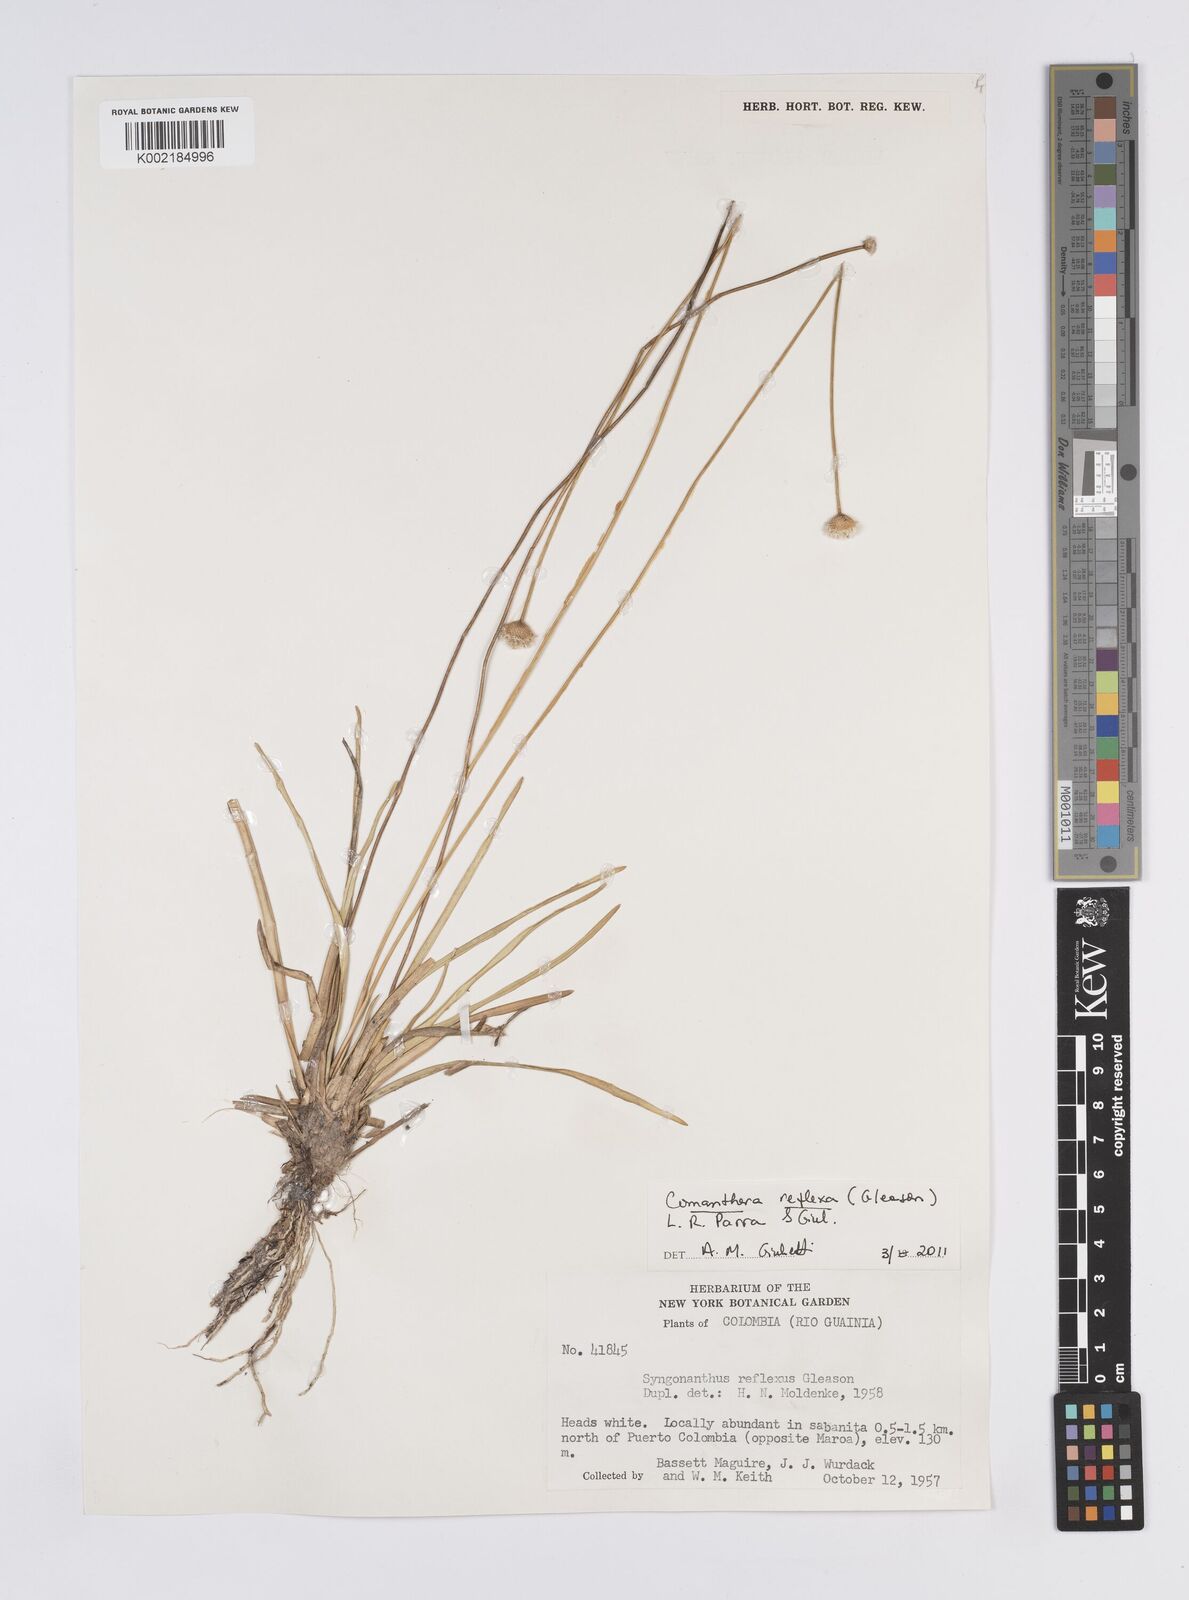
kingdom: Plantae
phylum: Tracheophyta
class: Liliopsida
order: Poales
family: Eriocaulaceae
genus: Comanthera
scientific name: Comanthera reflexa
